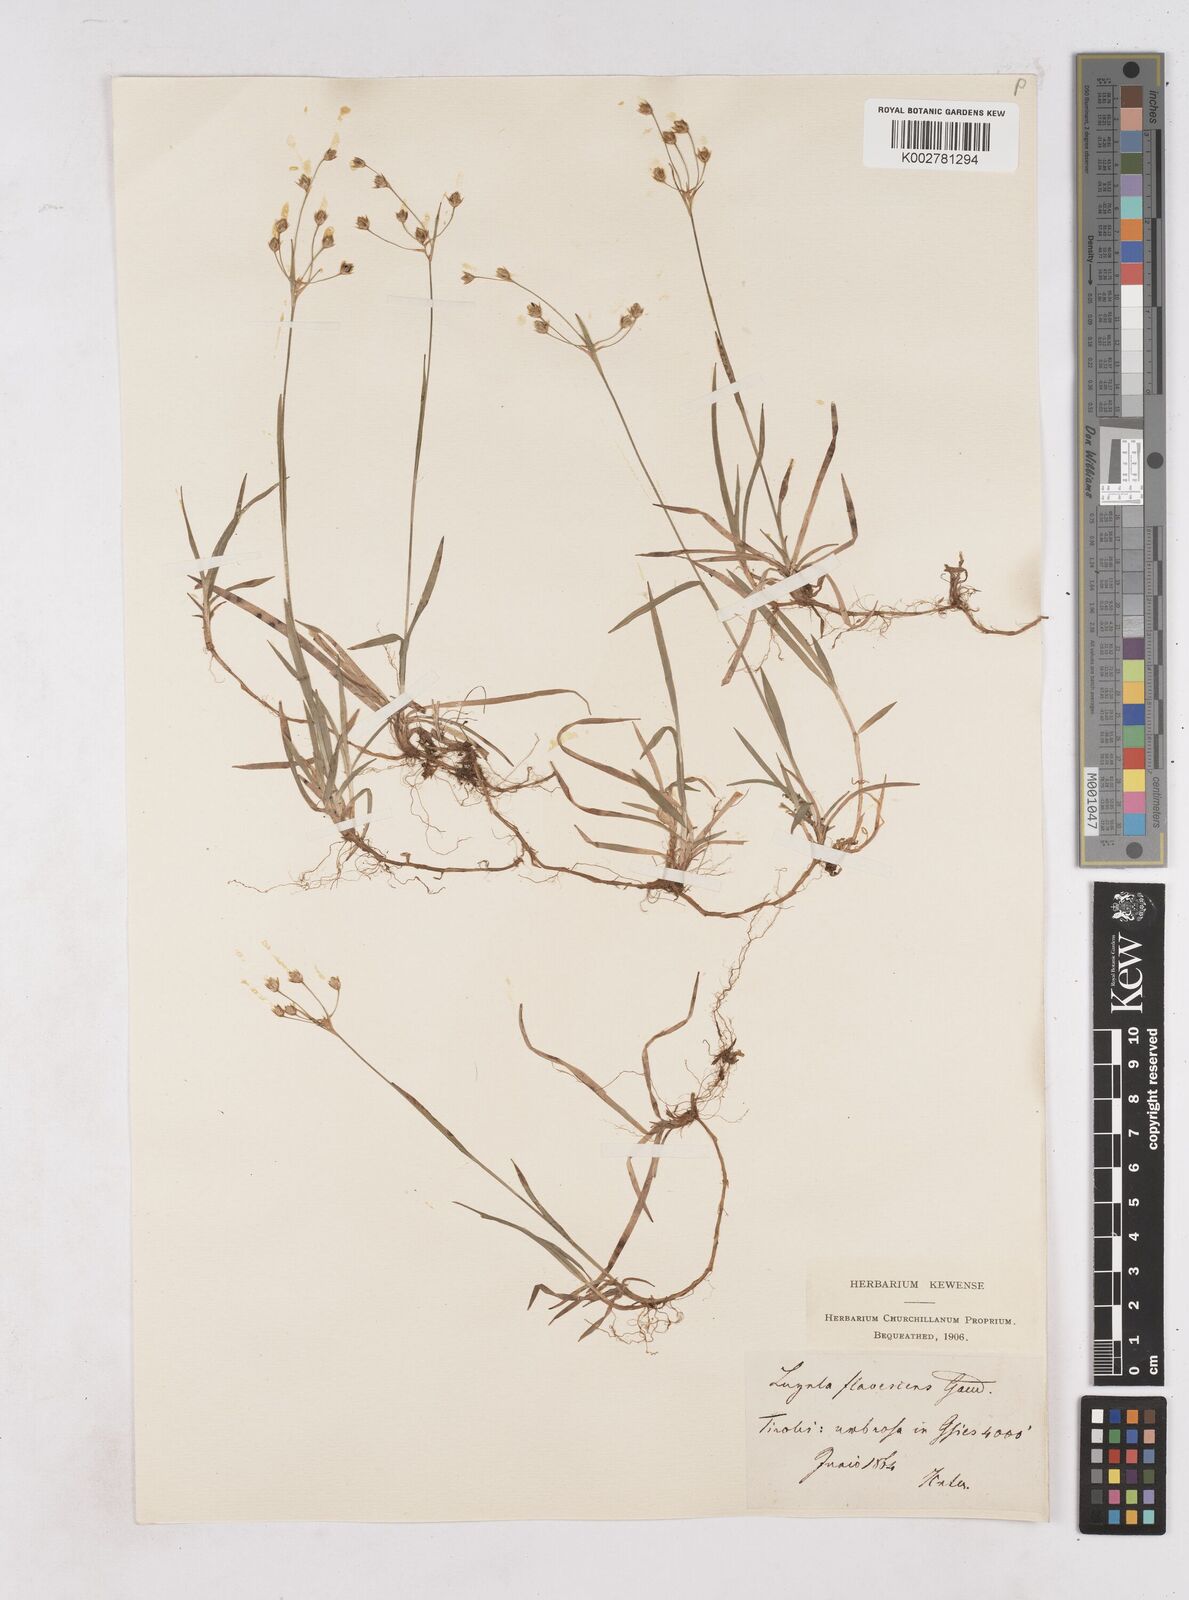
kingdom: Plantae
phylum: Tracheophyta
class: Liliopsida
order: Poales
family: Juncaceae
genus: Luzula
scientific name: Luzula luzulina
